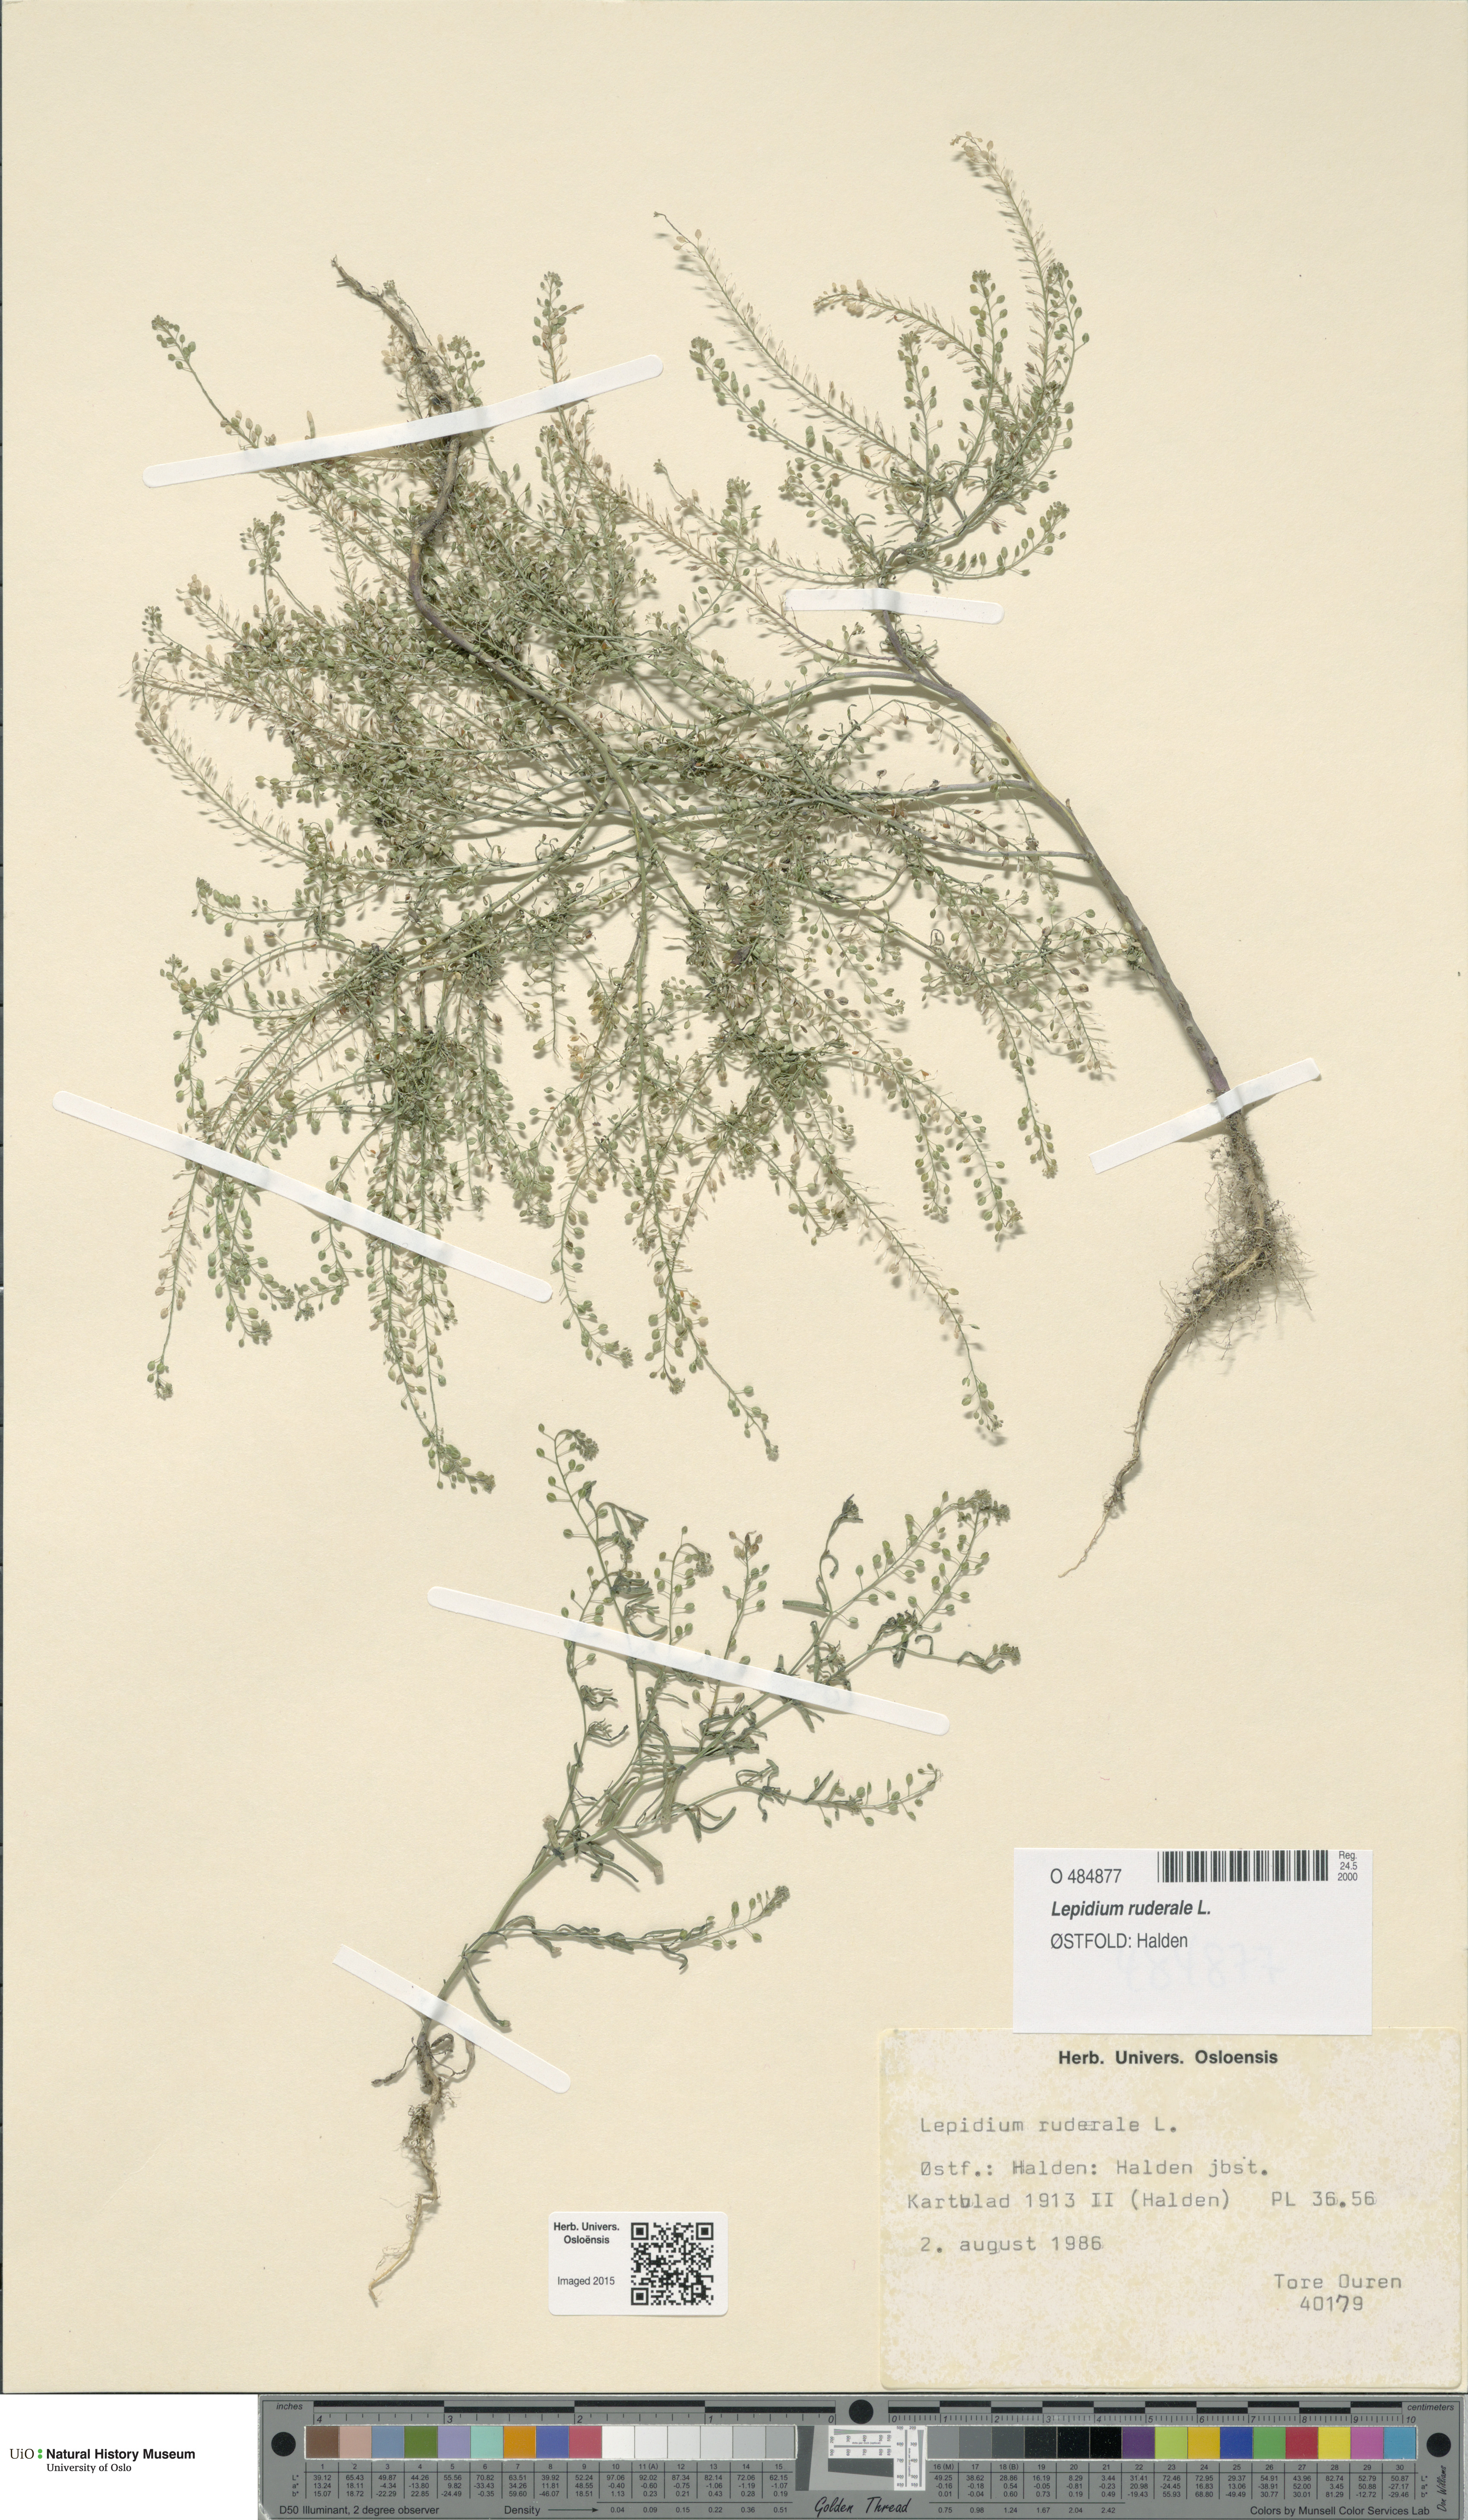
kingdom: Plantae
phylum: Tracheophyta
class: Magnoliopsida
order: Brassicales
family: Brassicaceae
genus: Lepidium
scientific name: Lepidium ruderale
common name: Narrow-leaved pepperwort
